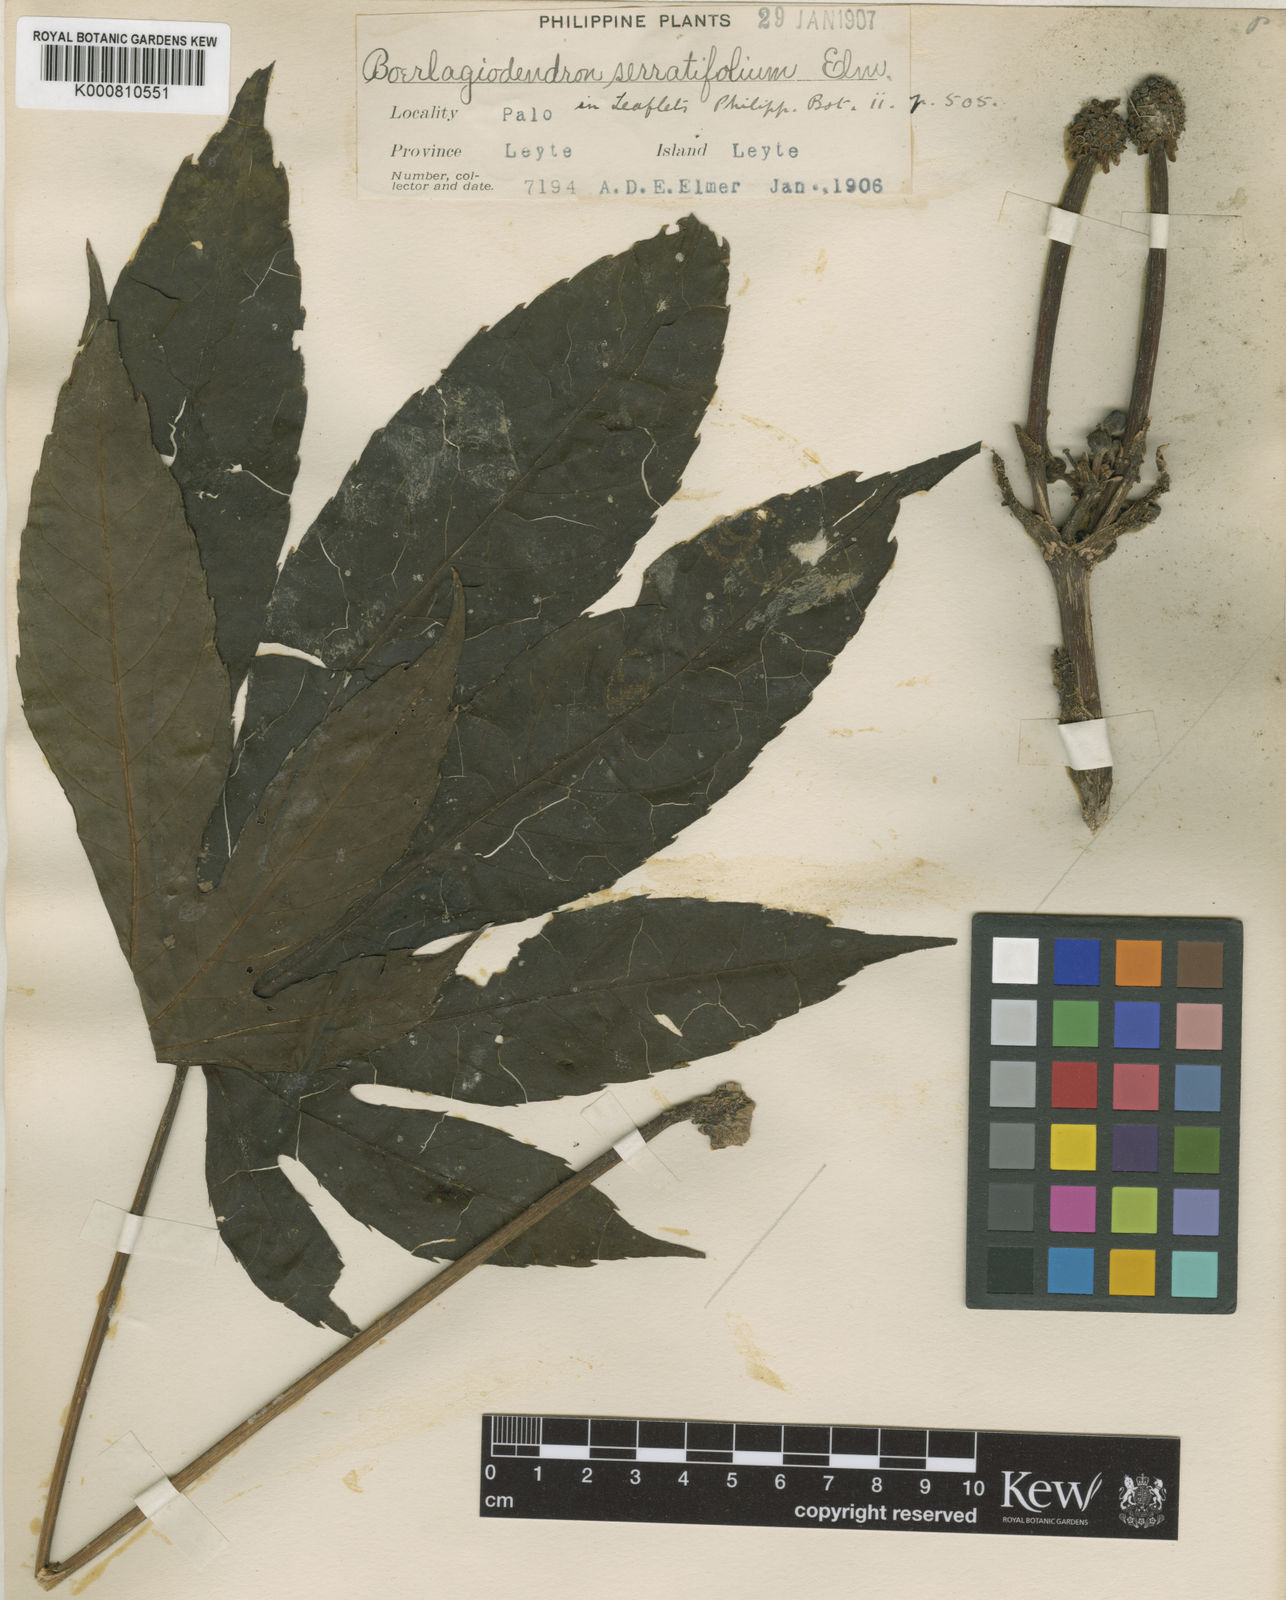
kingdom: Plantae
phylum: Tracheophyta
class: Magnoliopsida
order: Apiales
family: Araliaceae
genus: Osmoxylon
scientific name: Osmoxylon serratifolium
